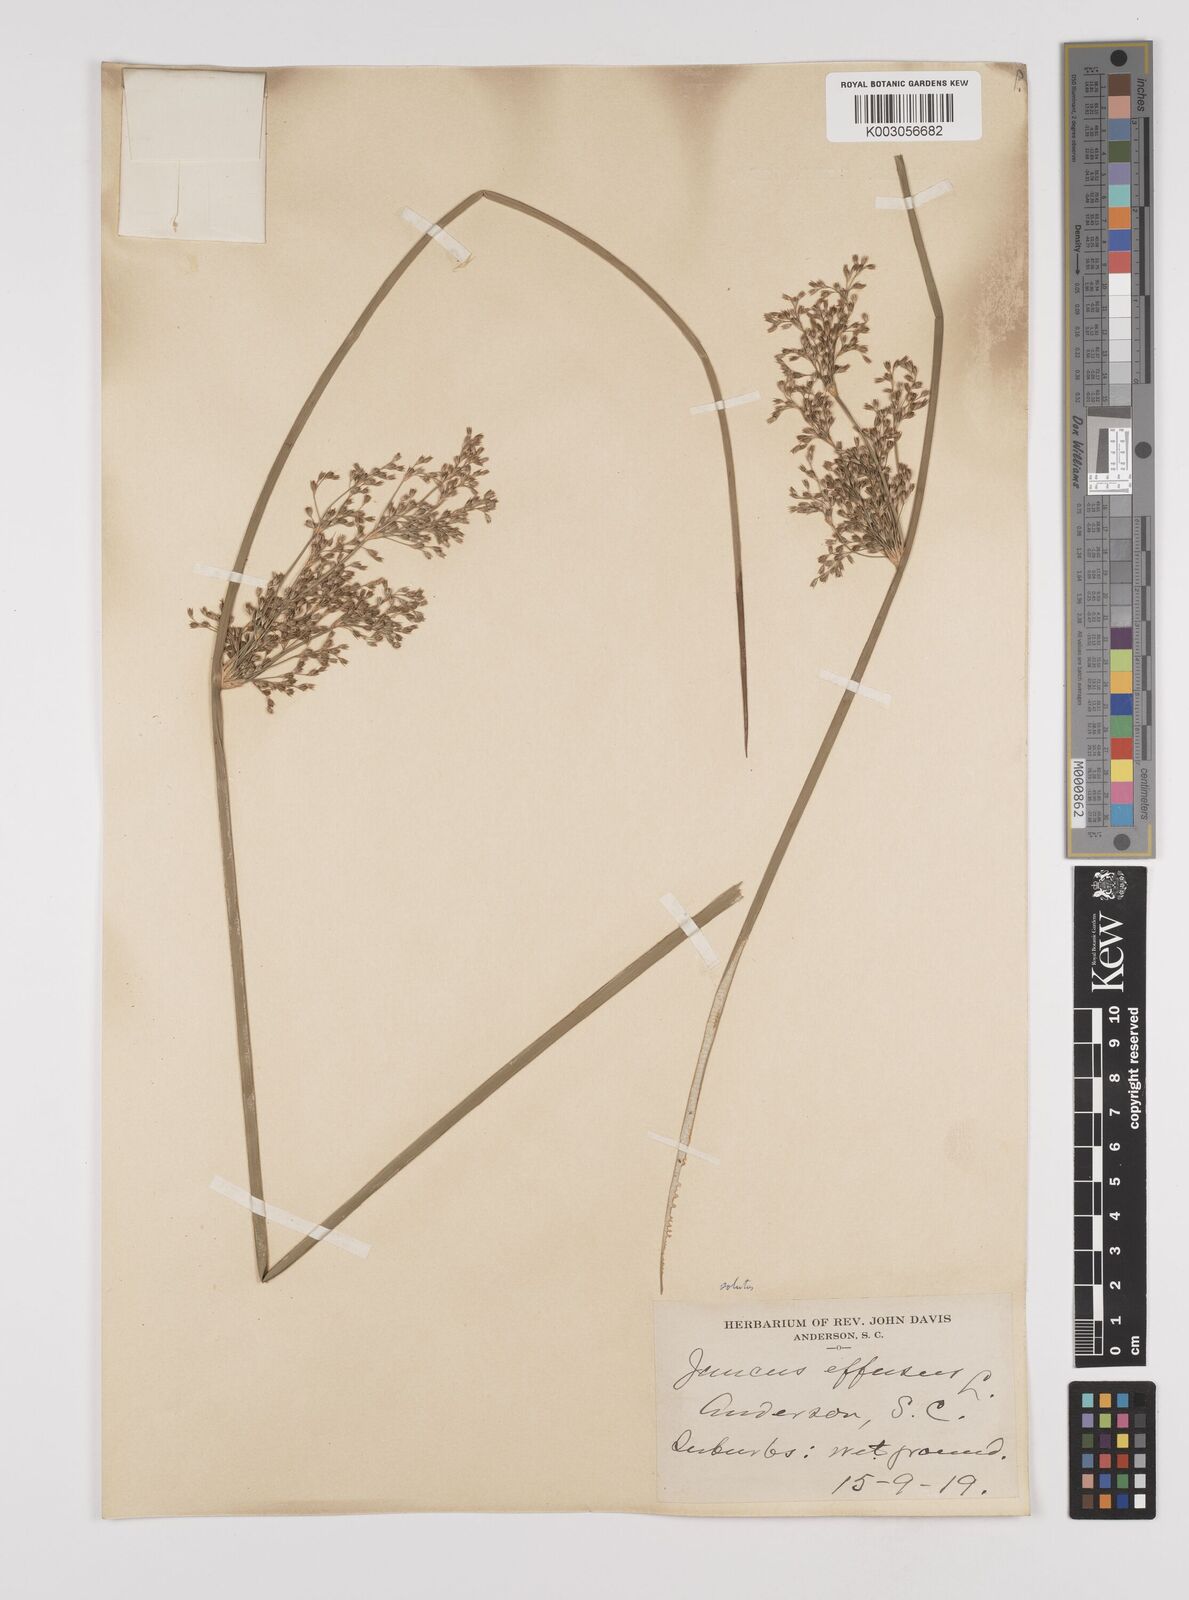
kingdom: Plantae
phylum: Tracheophyta
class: Liliopsida
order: Poales
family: Juncaceae
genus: Juncus
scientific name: Juncus effusus
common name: Soft rush
